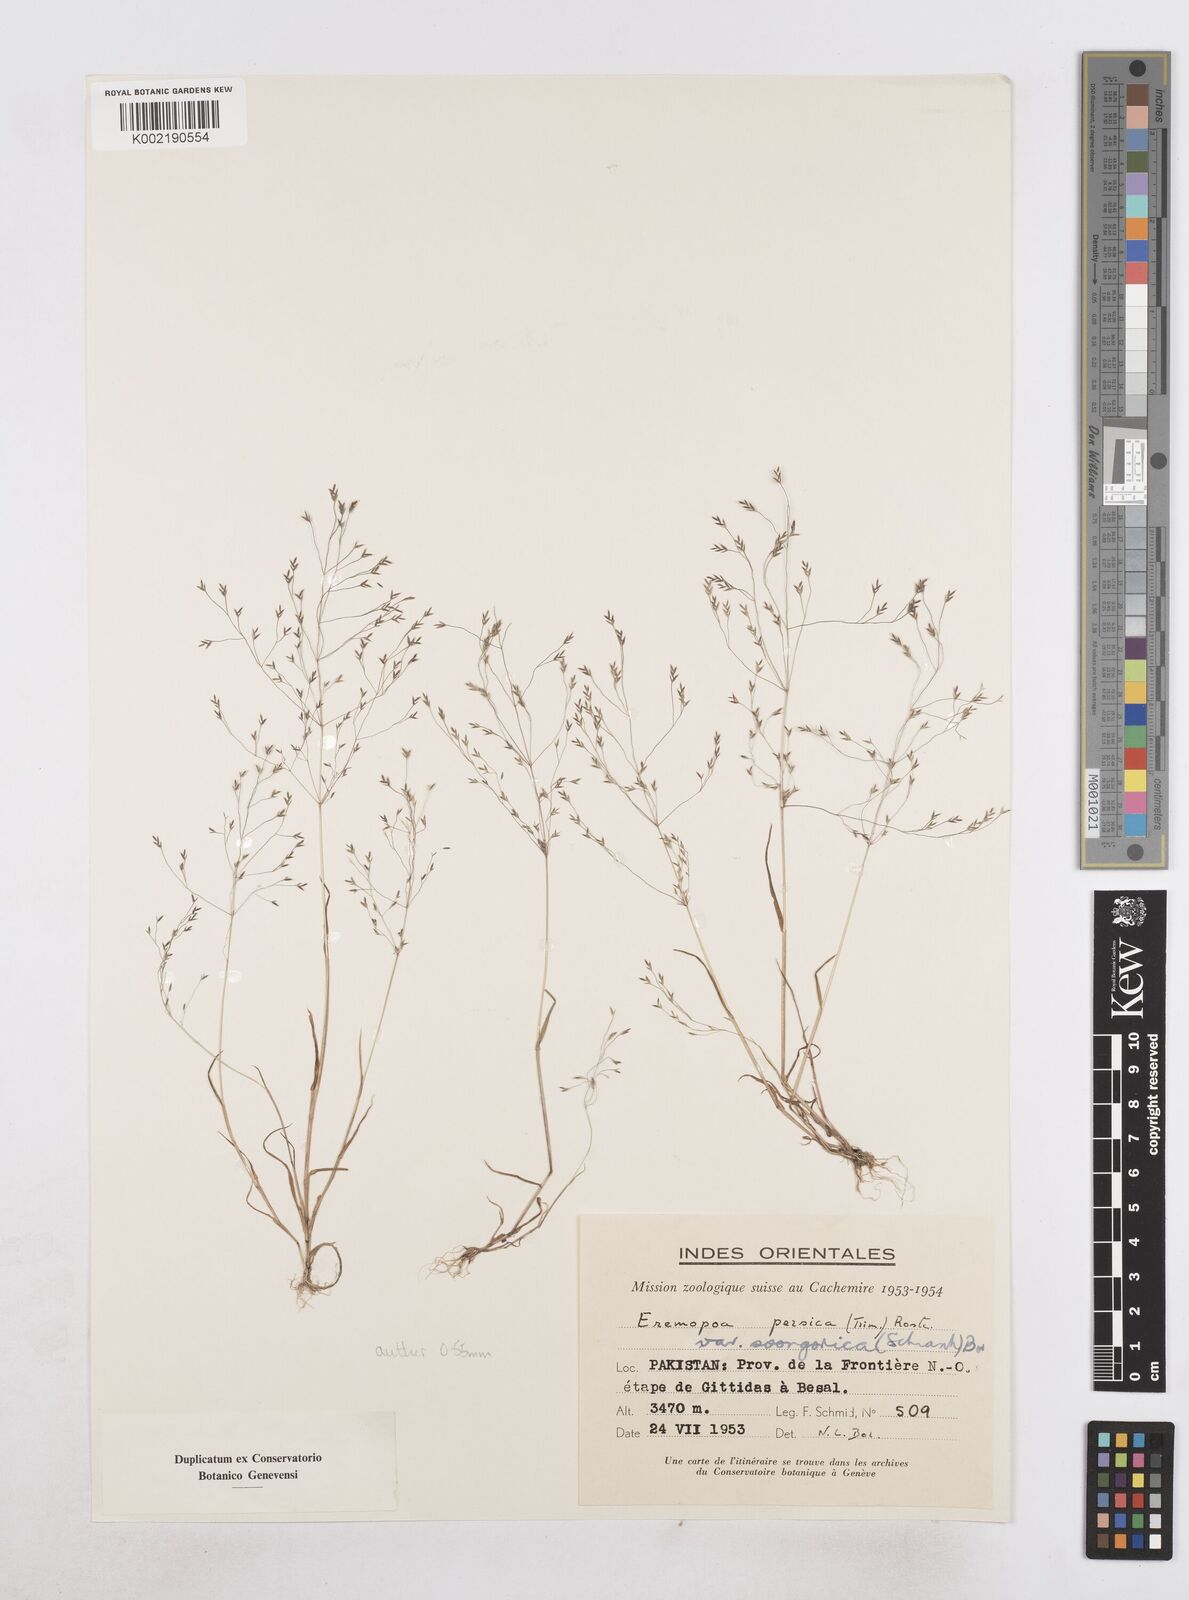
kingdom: Plantae
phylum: Tracheophyta
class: Liliopsida
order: Poales
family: Poaceae
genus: Poa
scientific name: Poa diaphora
